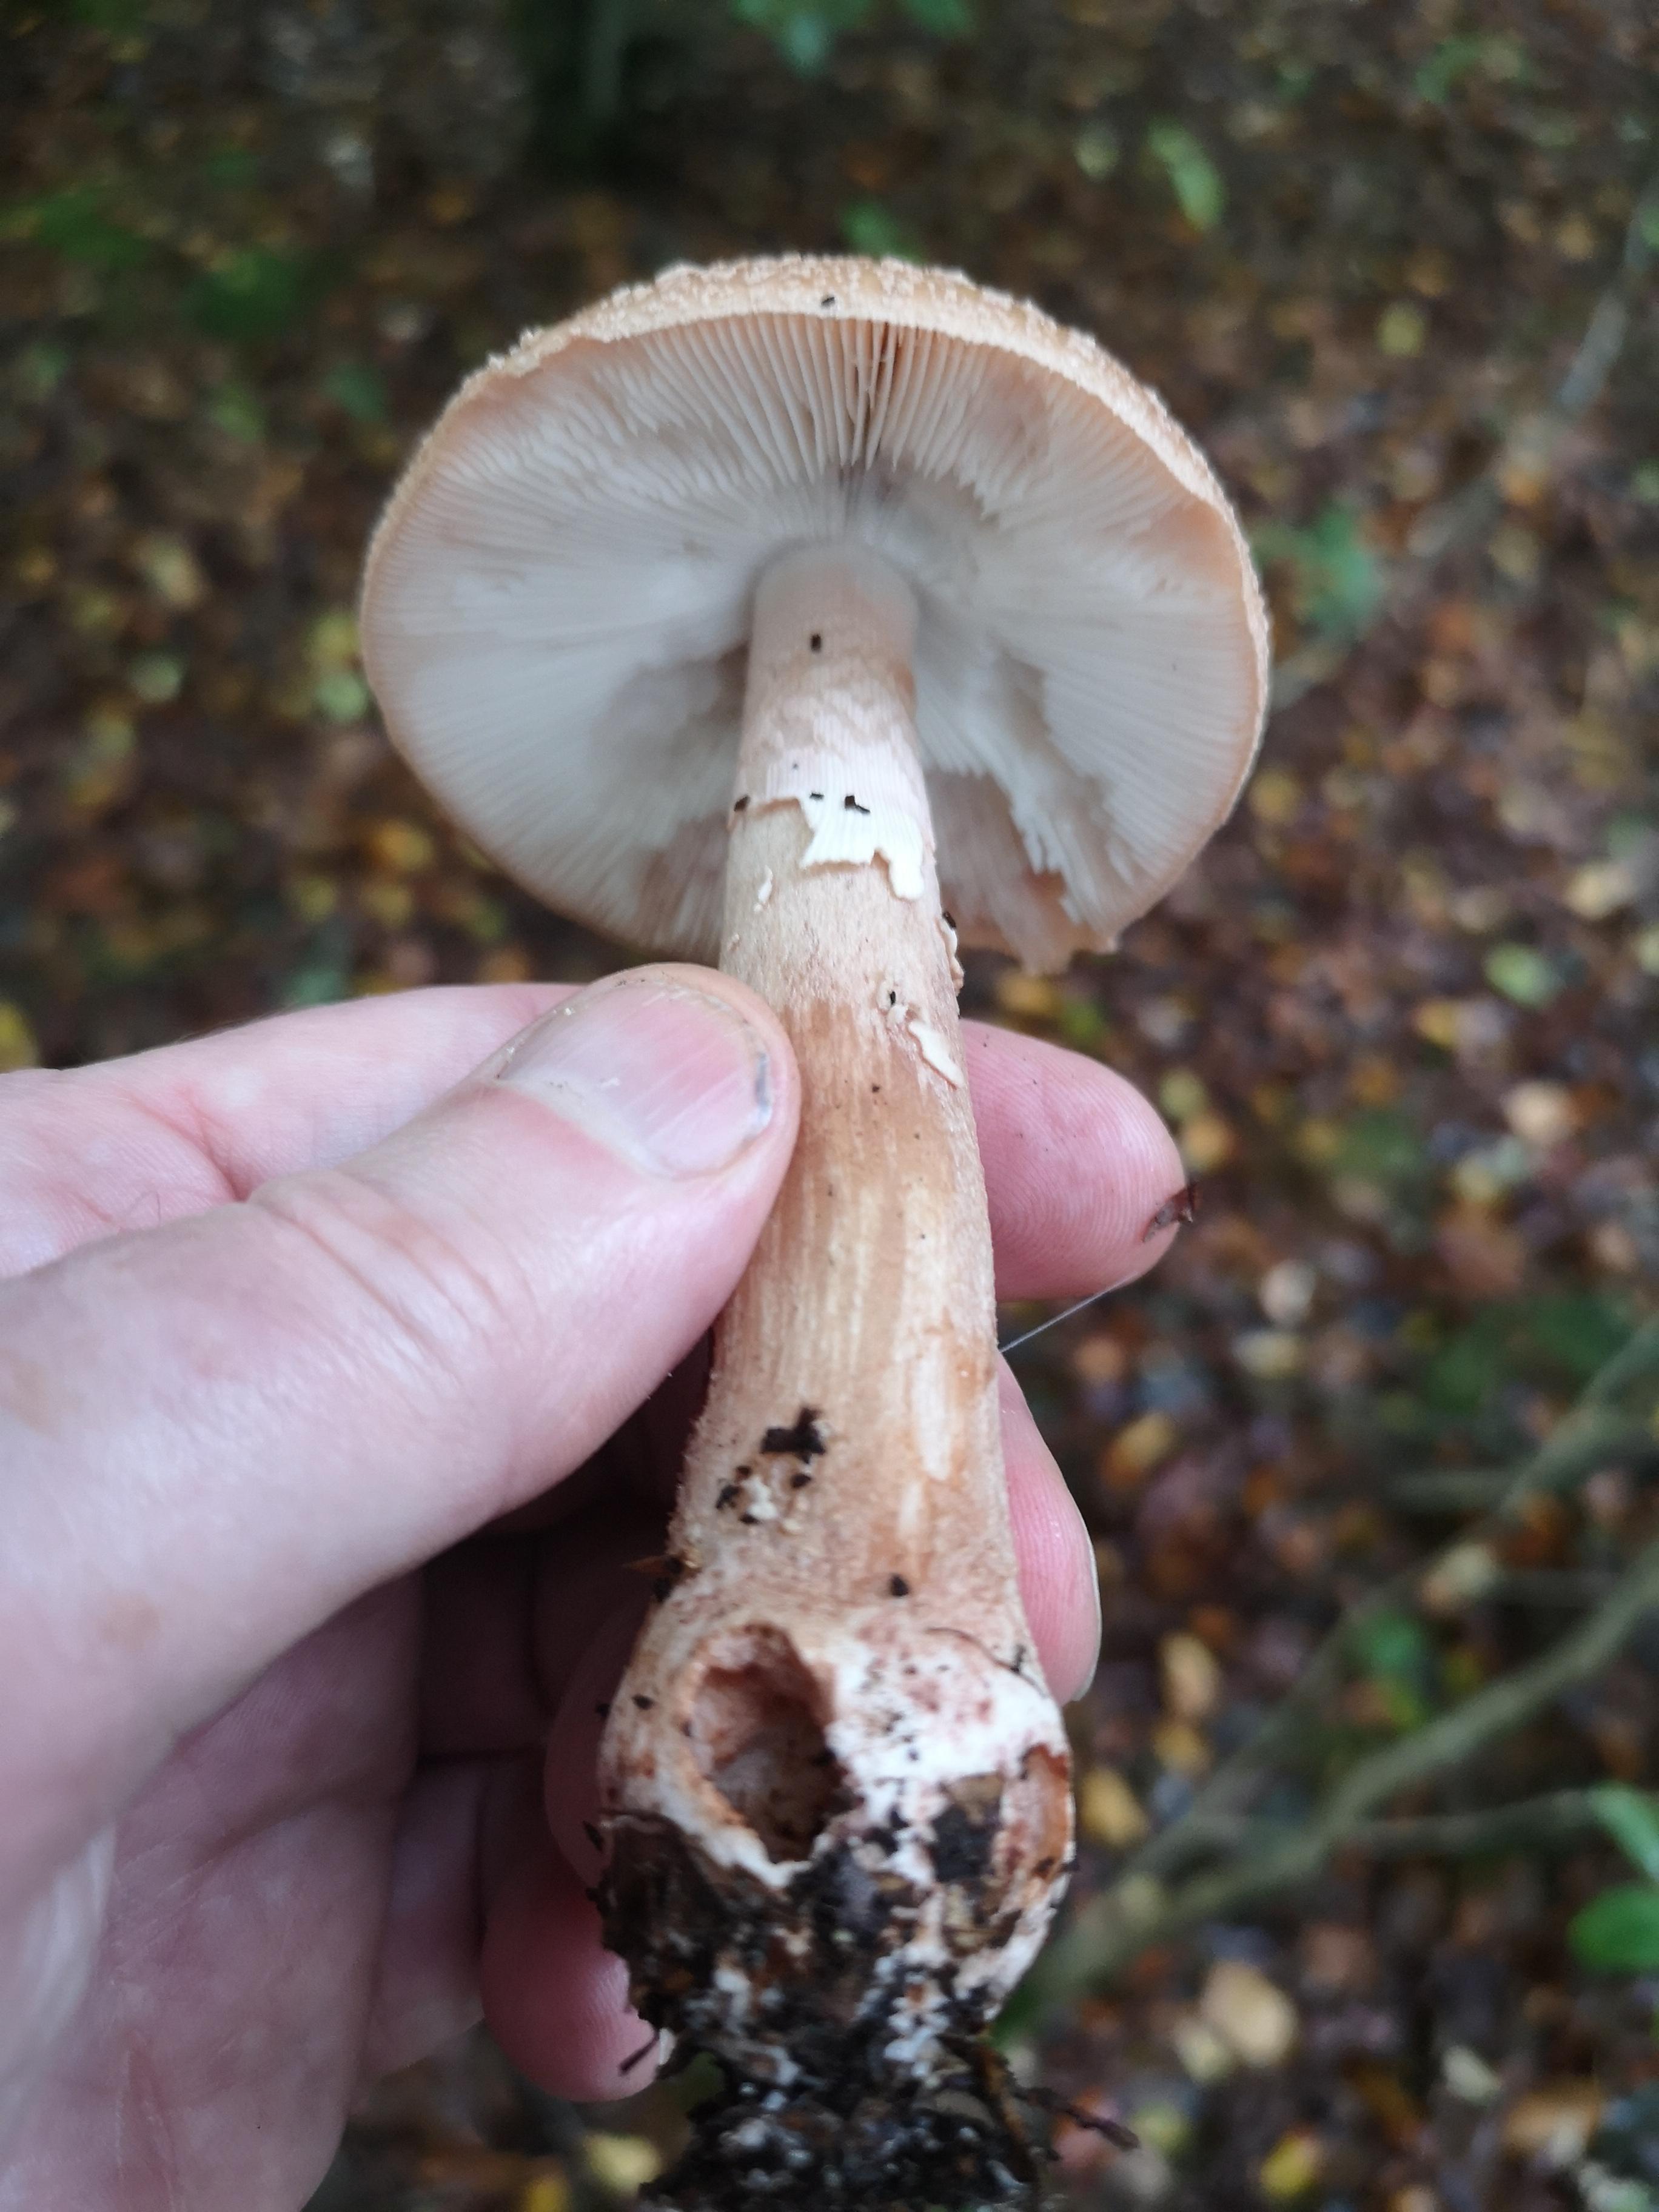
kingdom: Fungi
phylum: Basidiomycota
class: Agaricomycetes
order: Agaricales
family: Amanitaceae
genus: Amanita
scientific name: Amanita rubescens
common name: rødmende fluesvamp
